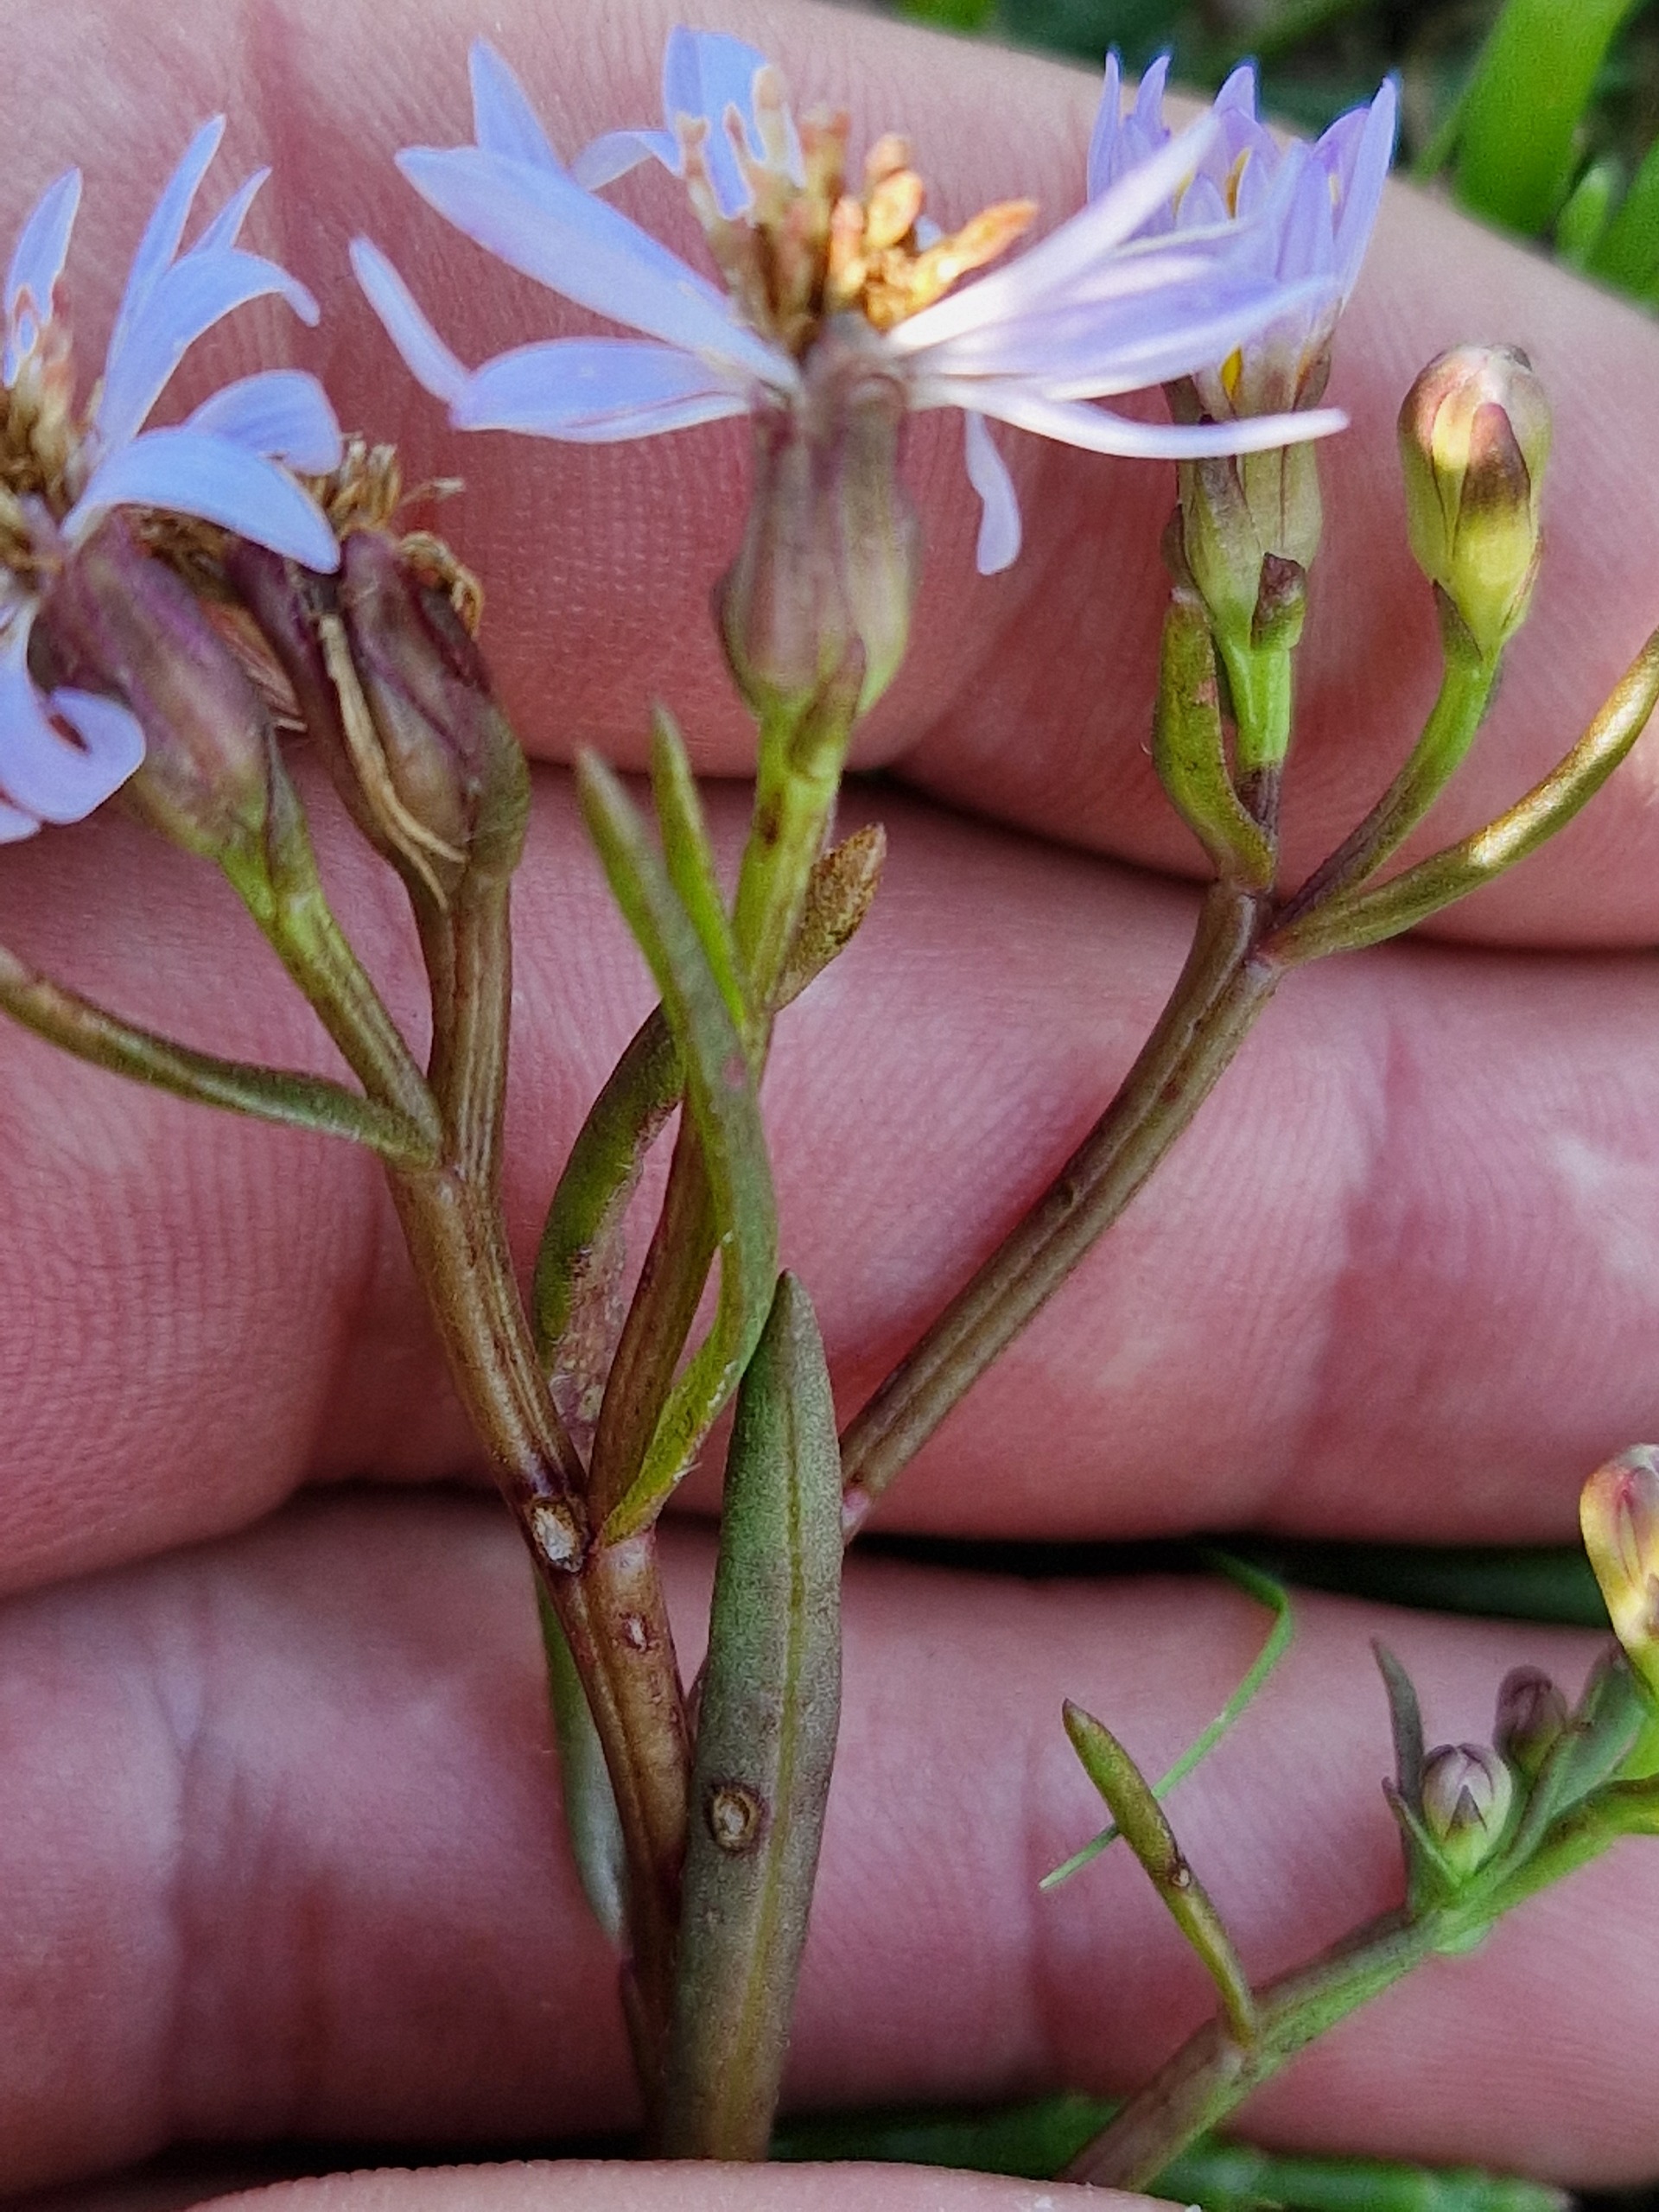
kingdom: Plantae
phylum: Tracheophyta
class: Magnoliopsida
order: Asterales
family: Asteraceae
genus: Tripolium
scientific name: Tripolium pannonicum
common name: Strandasters
